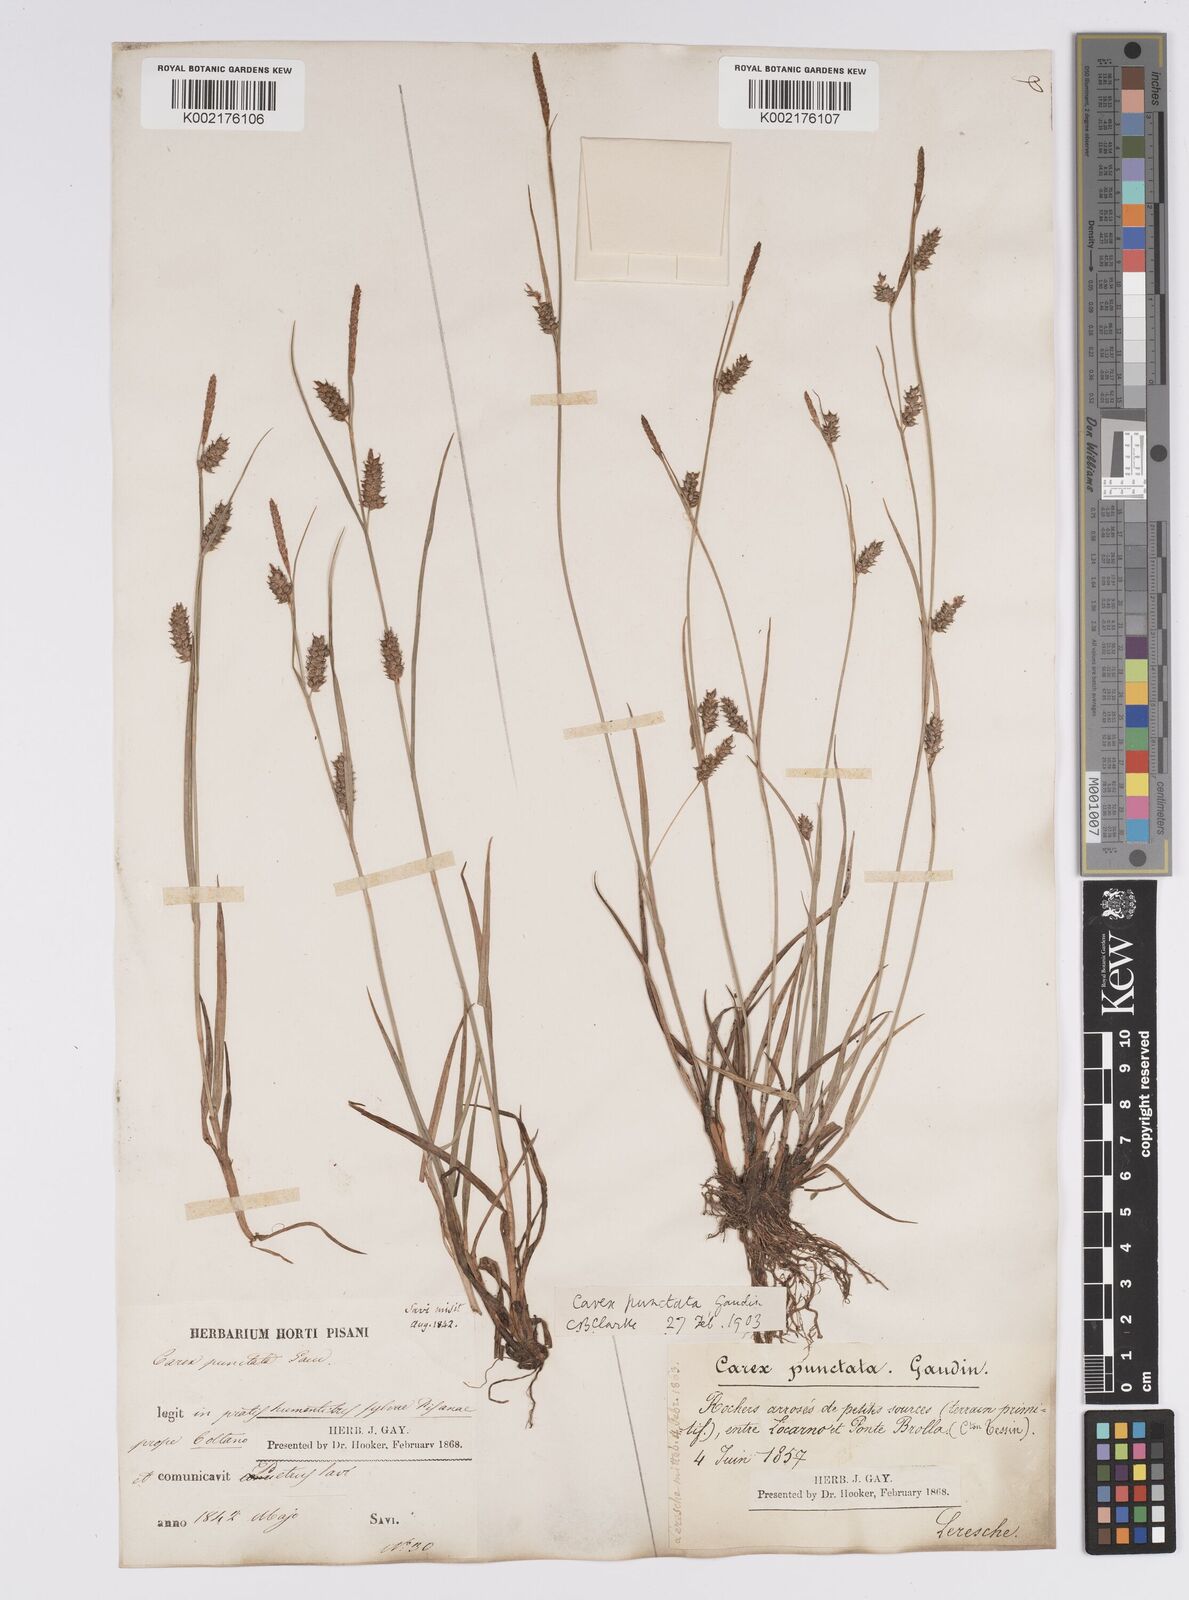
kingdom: Plantae
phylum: Tracheophyta
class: Liliopsida
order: Poales
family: Cyperaceae
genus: Carex
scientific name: Carex punctata
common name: Dotted sedge
